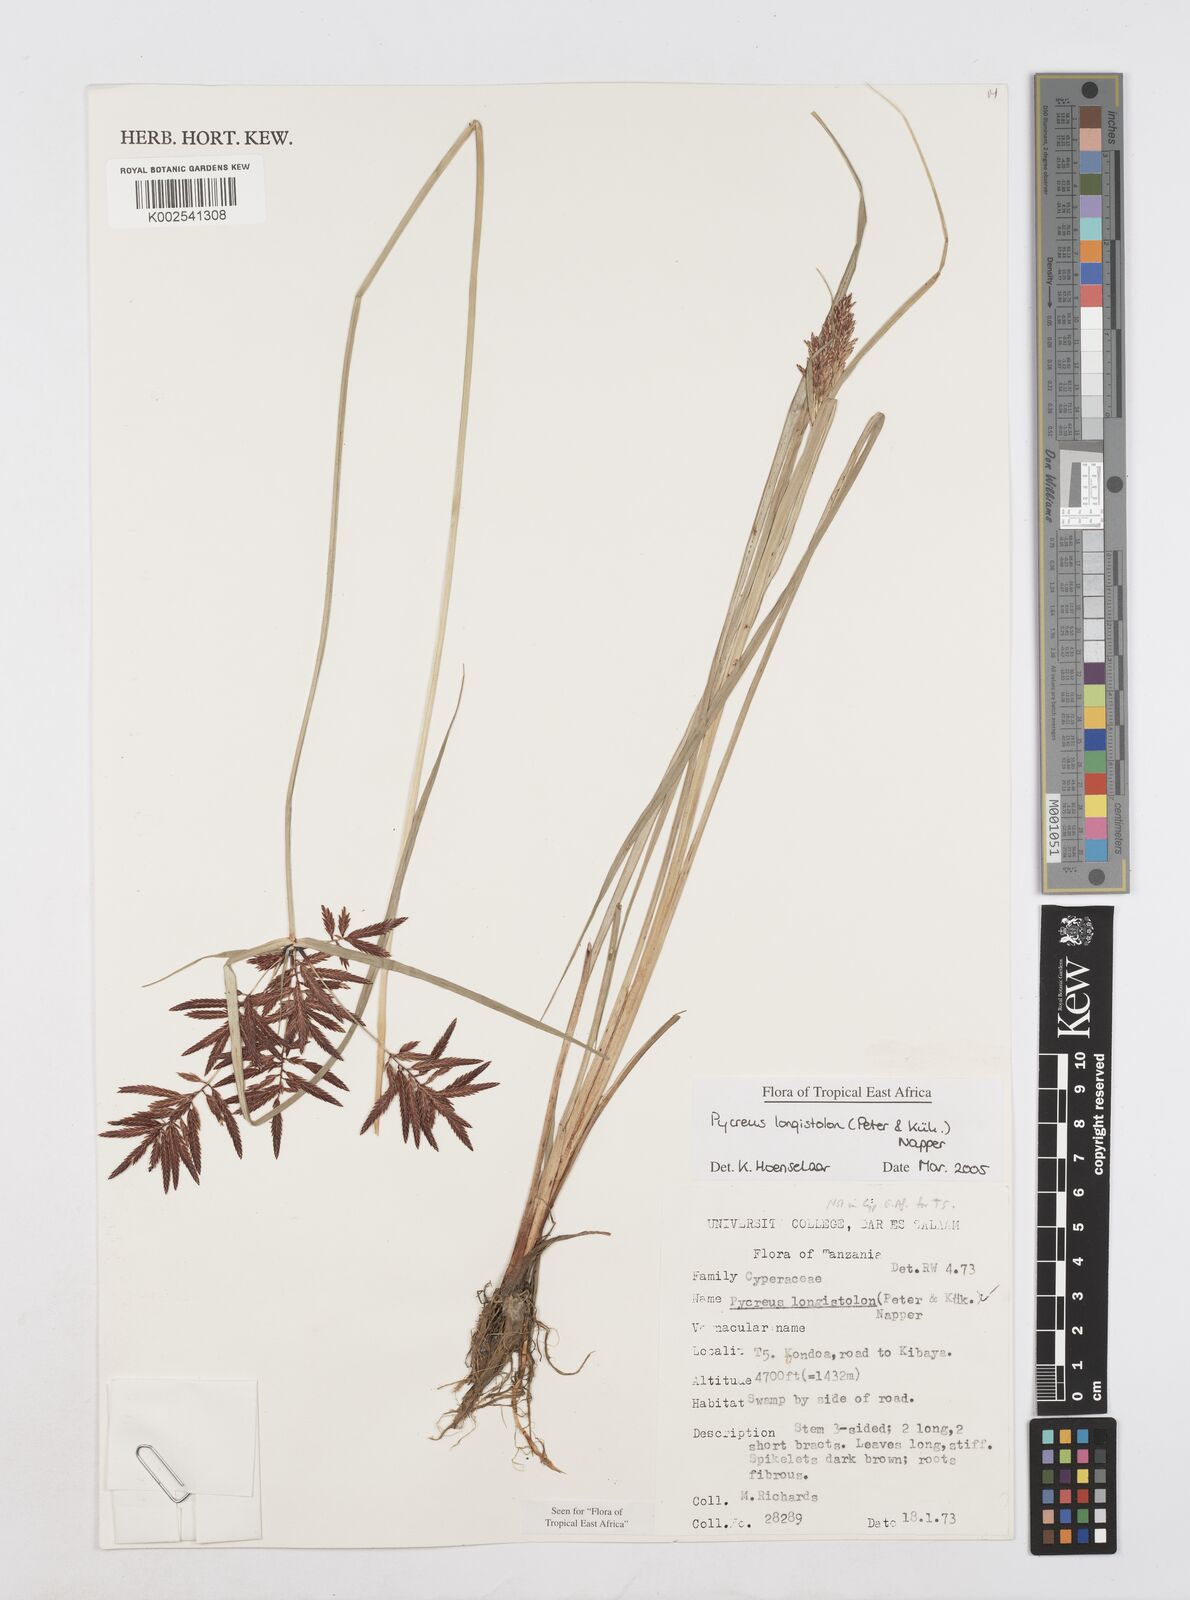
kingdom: Plantae
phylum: Tracheophyta
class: Liliopsida
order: Poales
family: Cyperaceae
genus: Cyperus
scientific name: Cyperus chrysanthus
